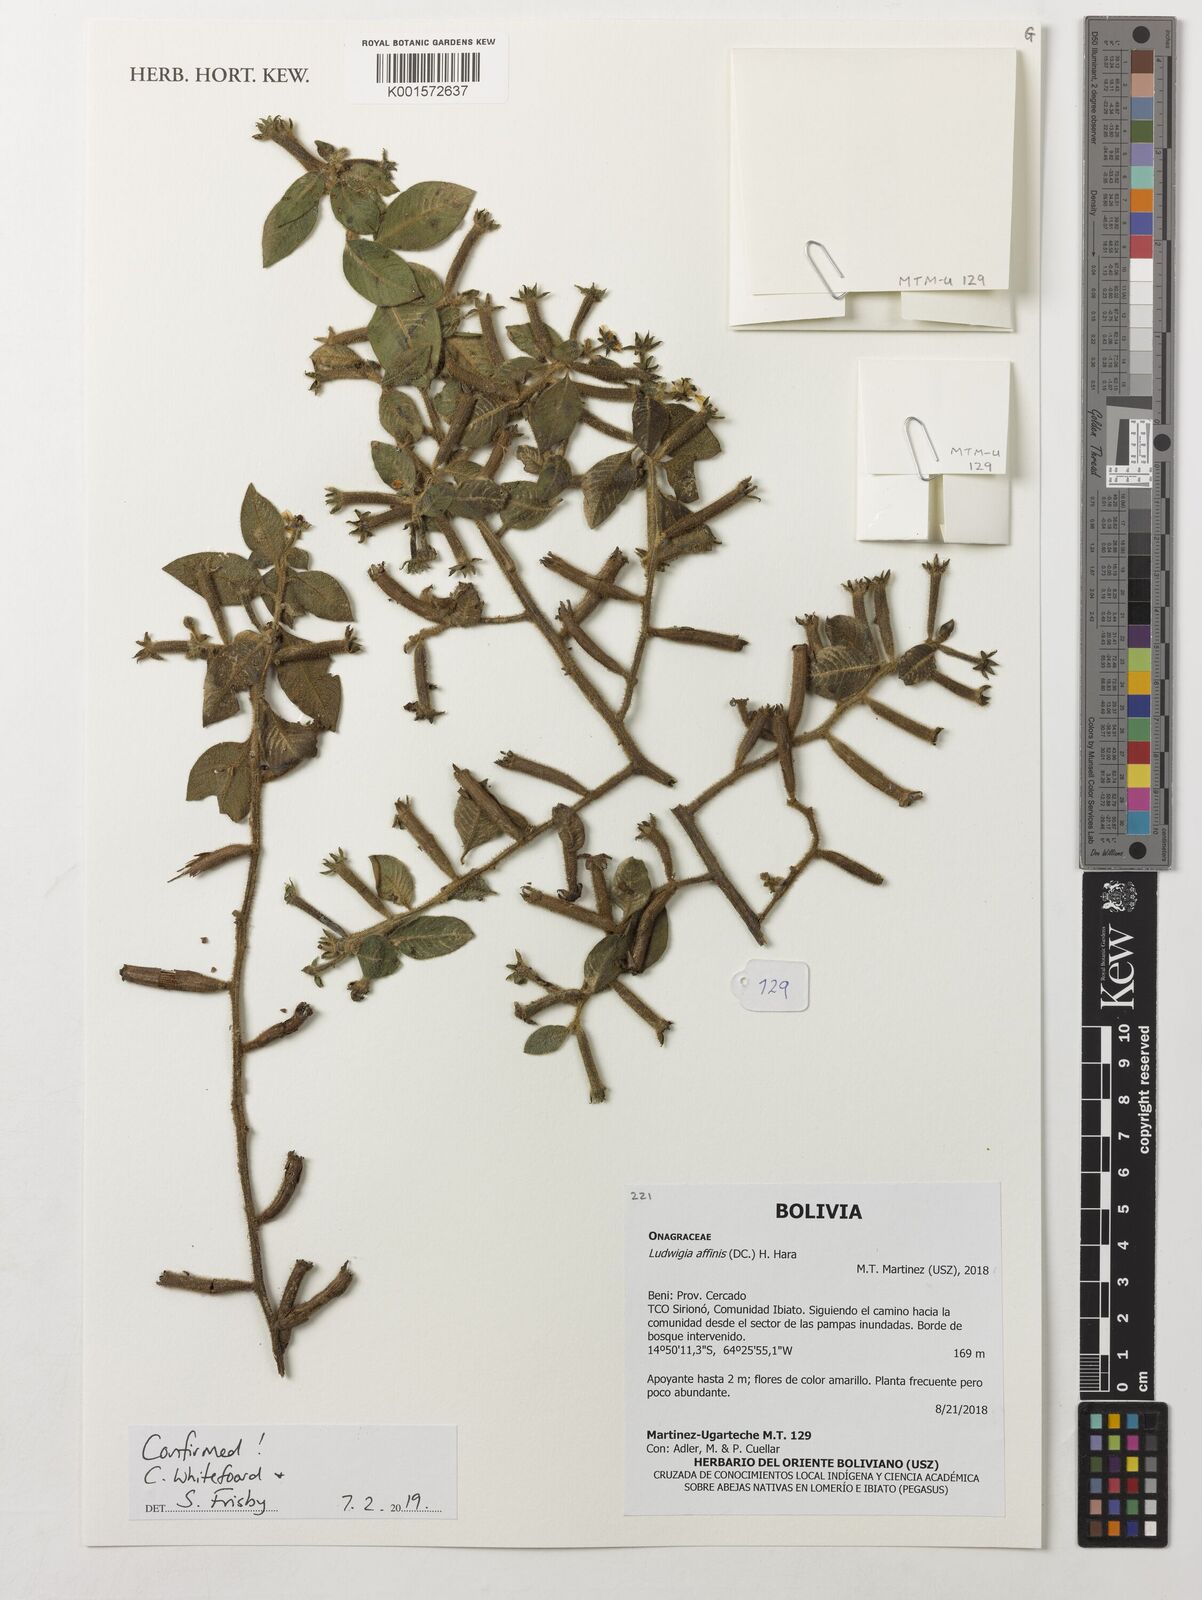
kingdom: Plantae
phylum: Tracheophyta
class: Magnoliopsida
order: Myrtales
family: Onagraceae
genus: Ludwigia
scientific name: Ludwigia affinis
